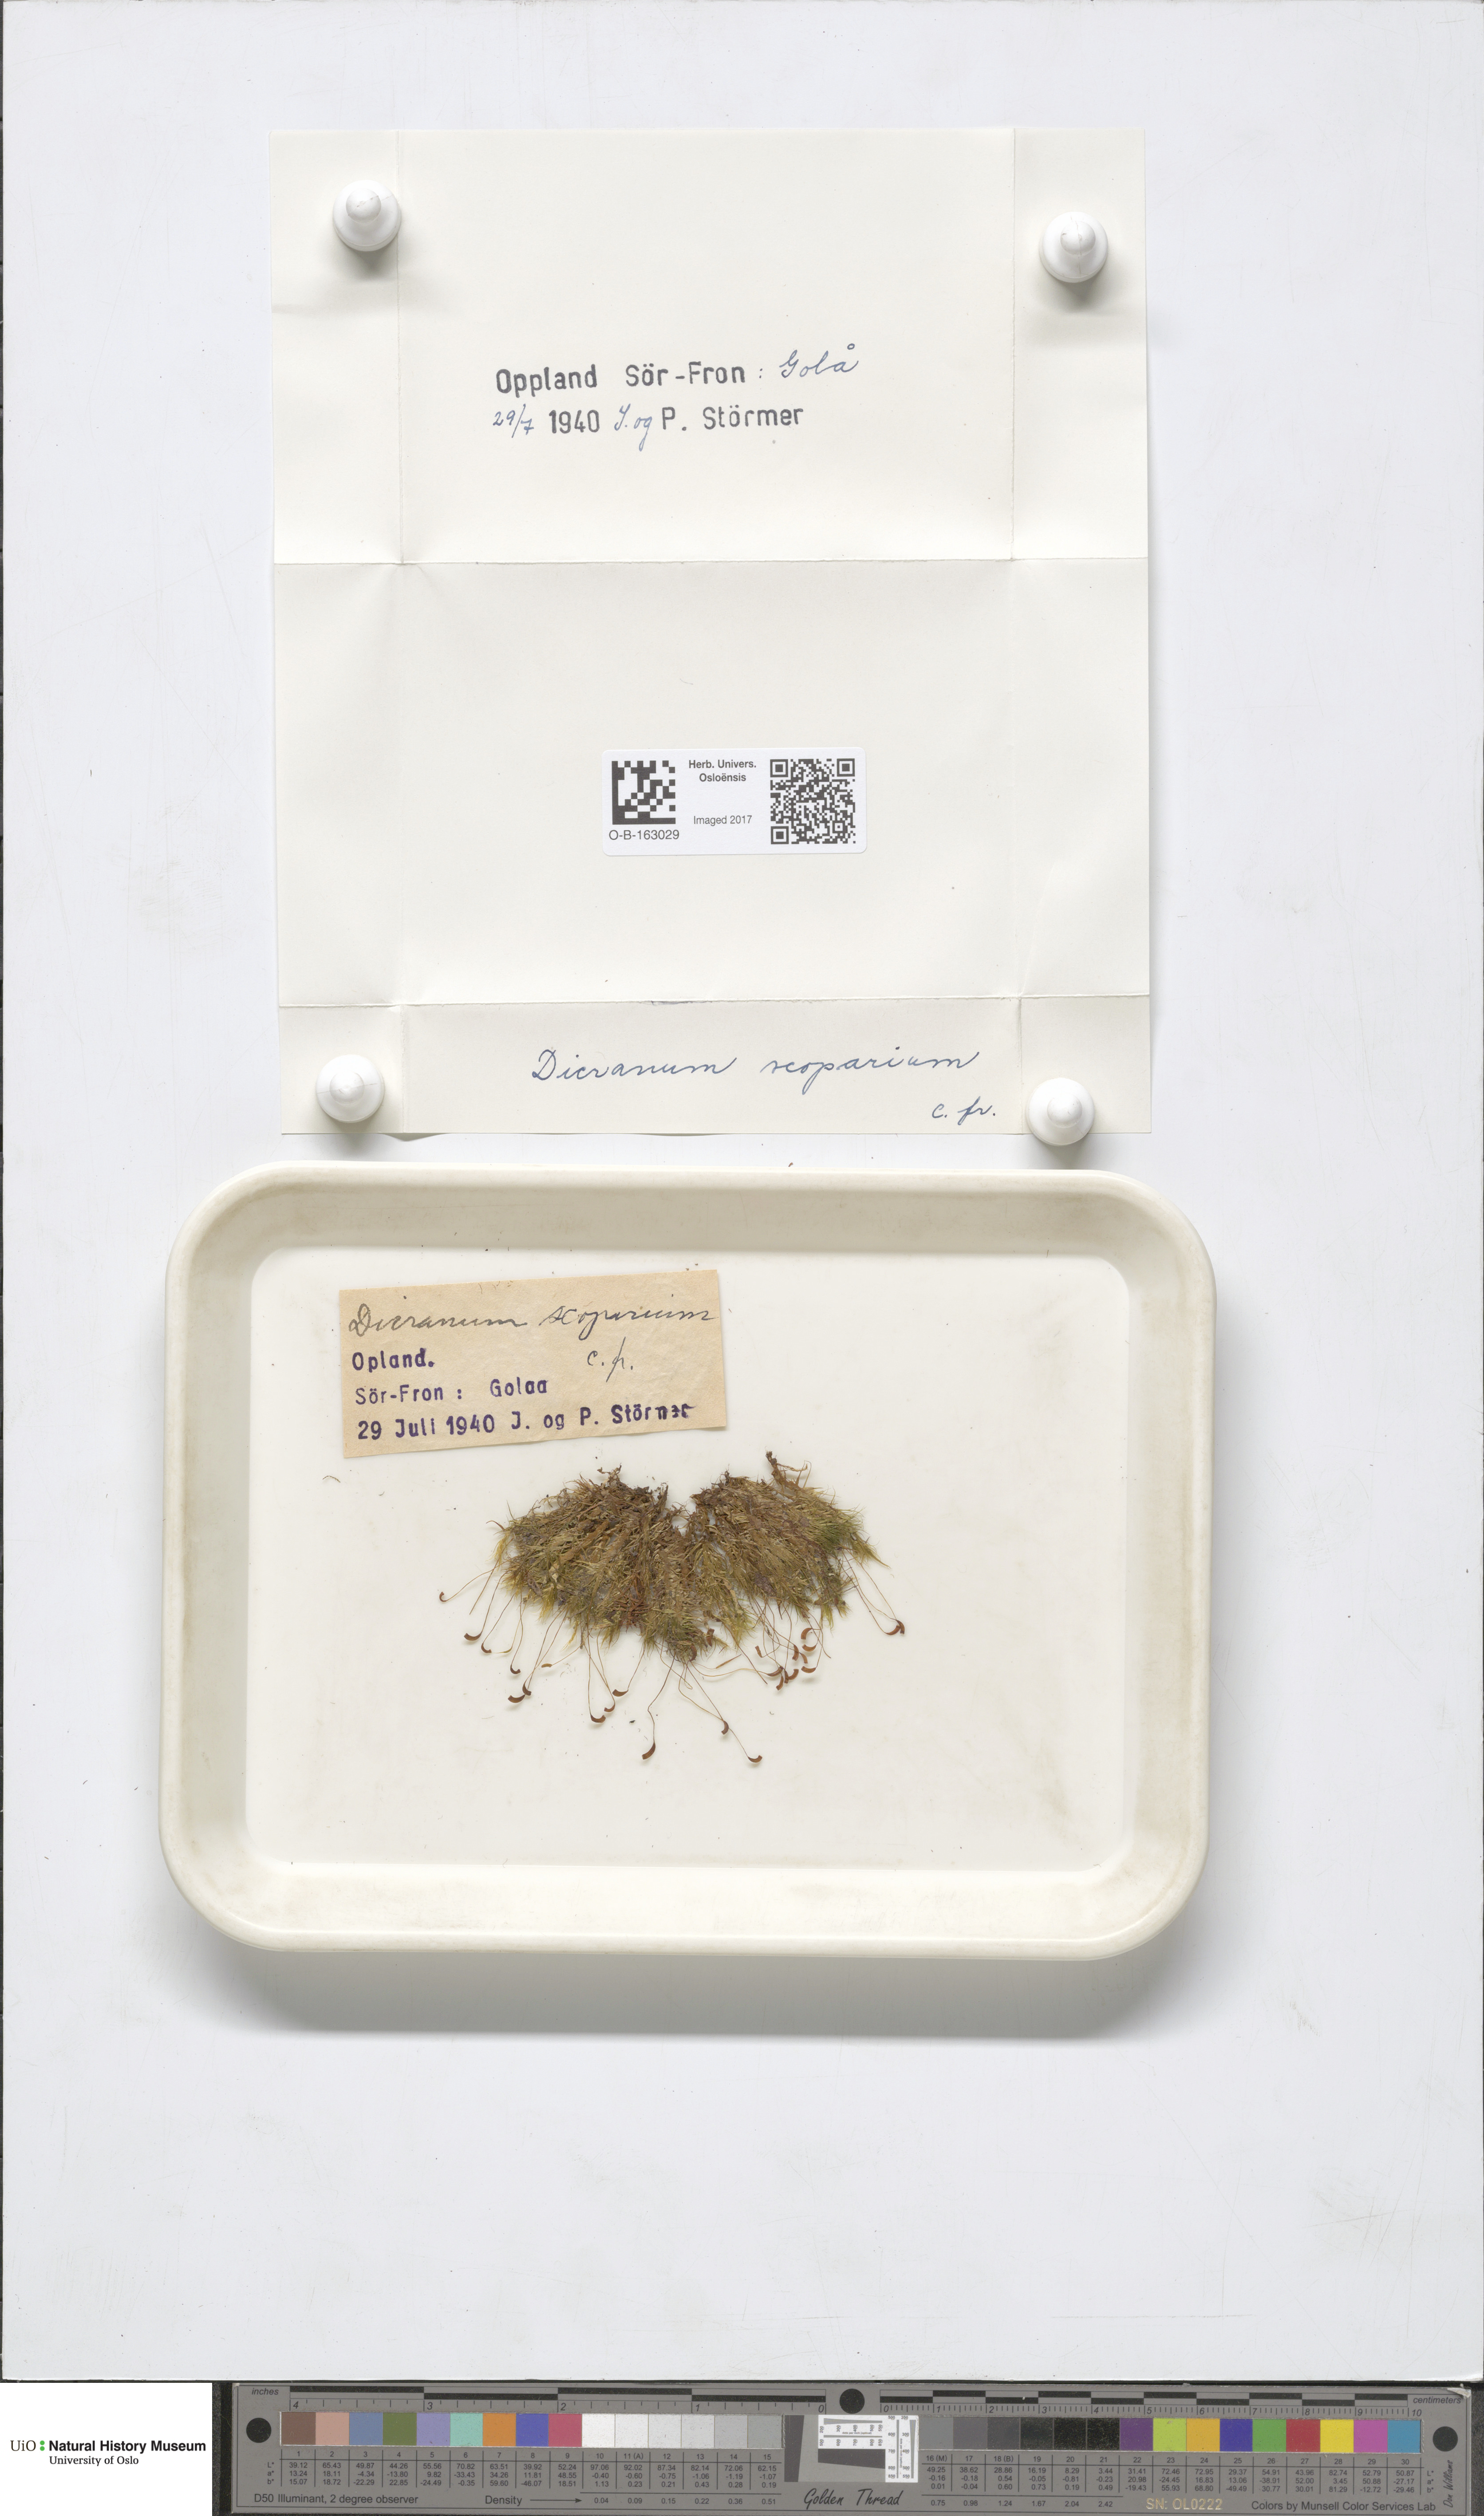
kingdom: Plantae
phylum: Bryophyta
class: Bryopsida
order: Dicranales
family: Dicranaceae
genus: Dicranum
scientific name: Dicranum scoparium
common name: Broom fork-moss
